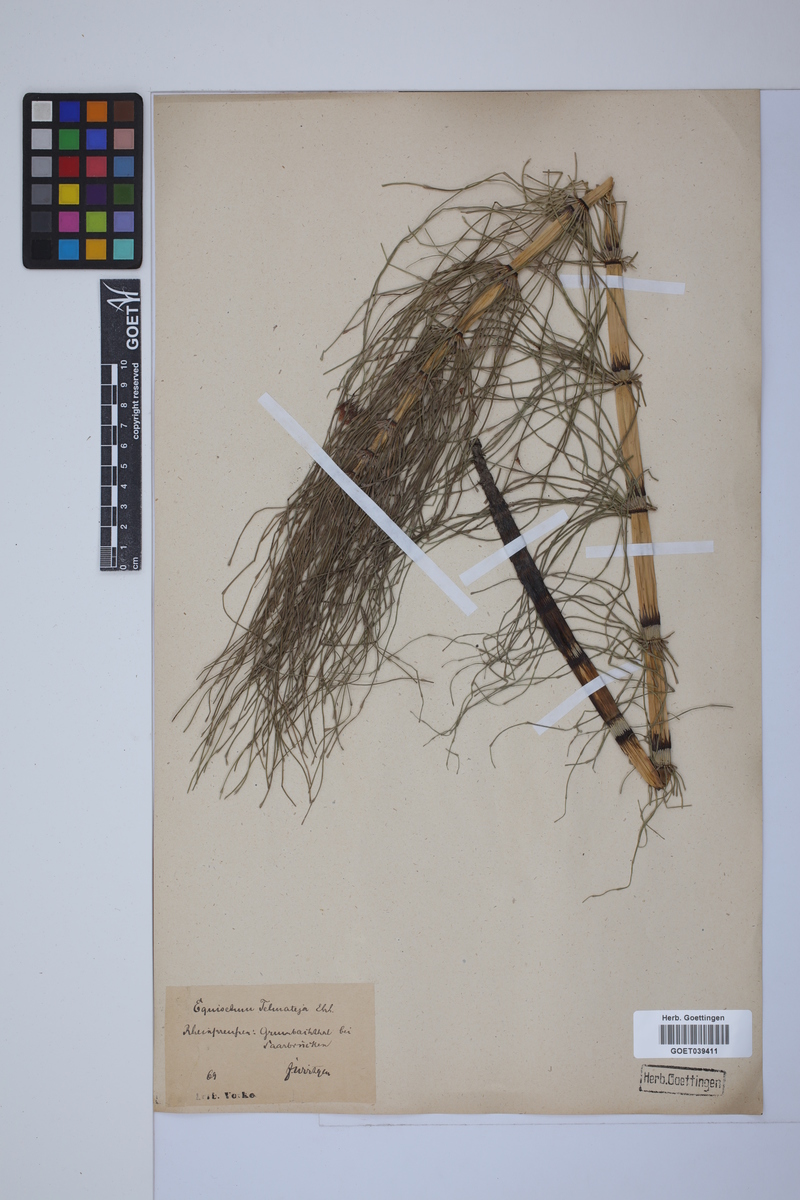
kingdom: Plantae
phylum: Tracheophyta
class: Polypodiopsida
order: Equisetales
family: Equisetaceae
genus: Equisetum
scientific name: Equisetum telmateia
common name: Great horsetail
